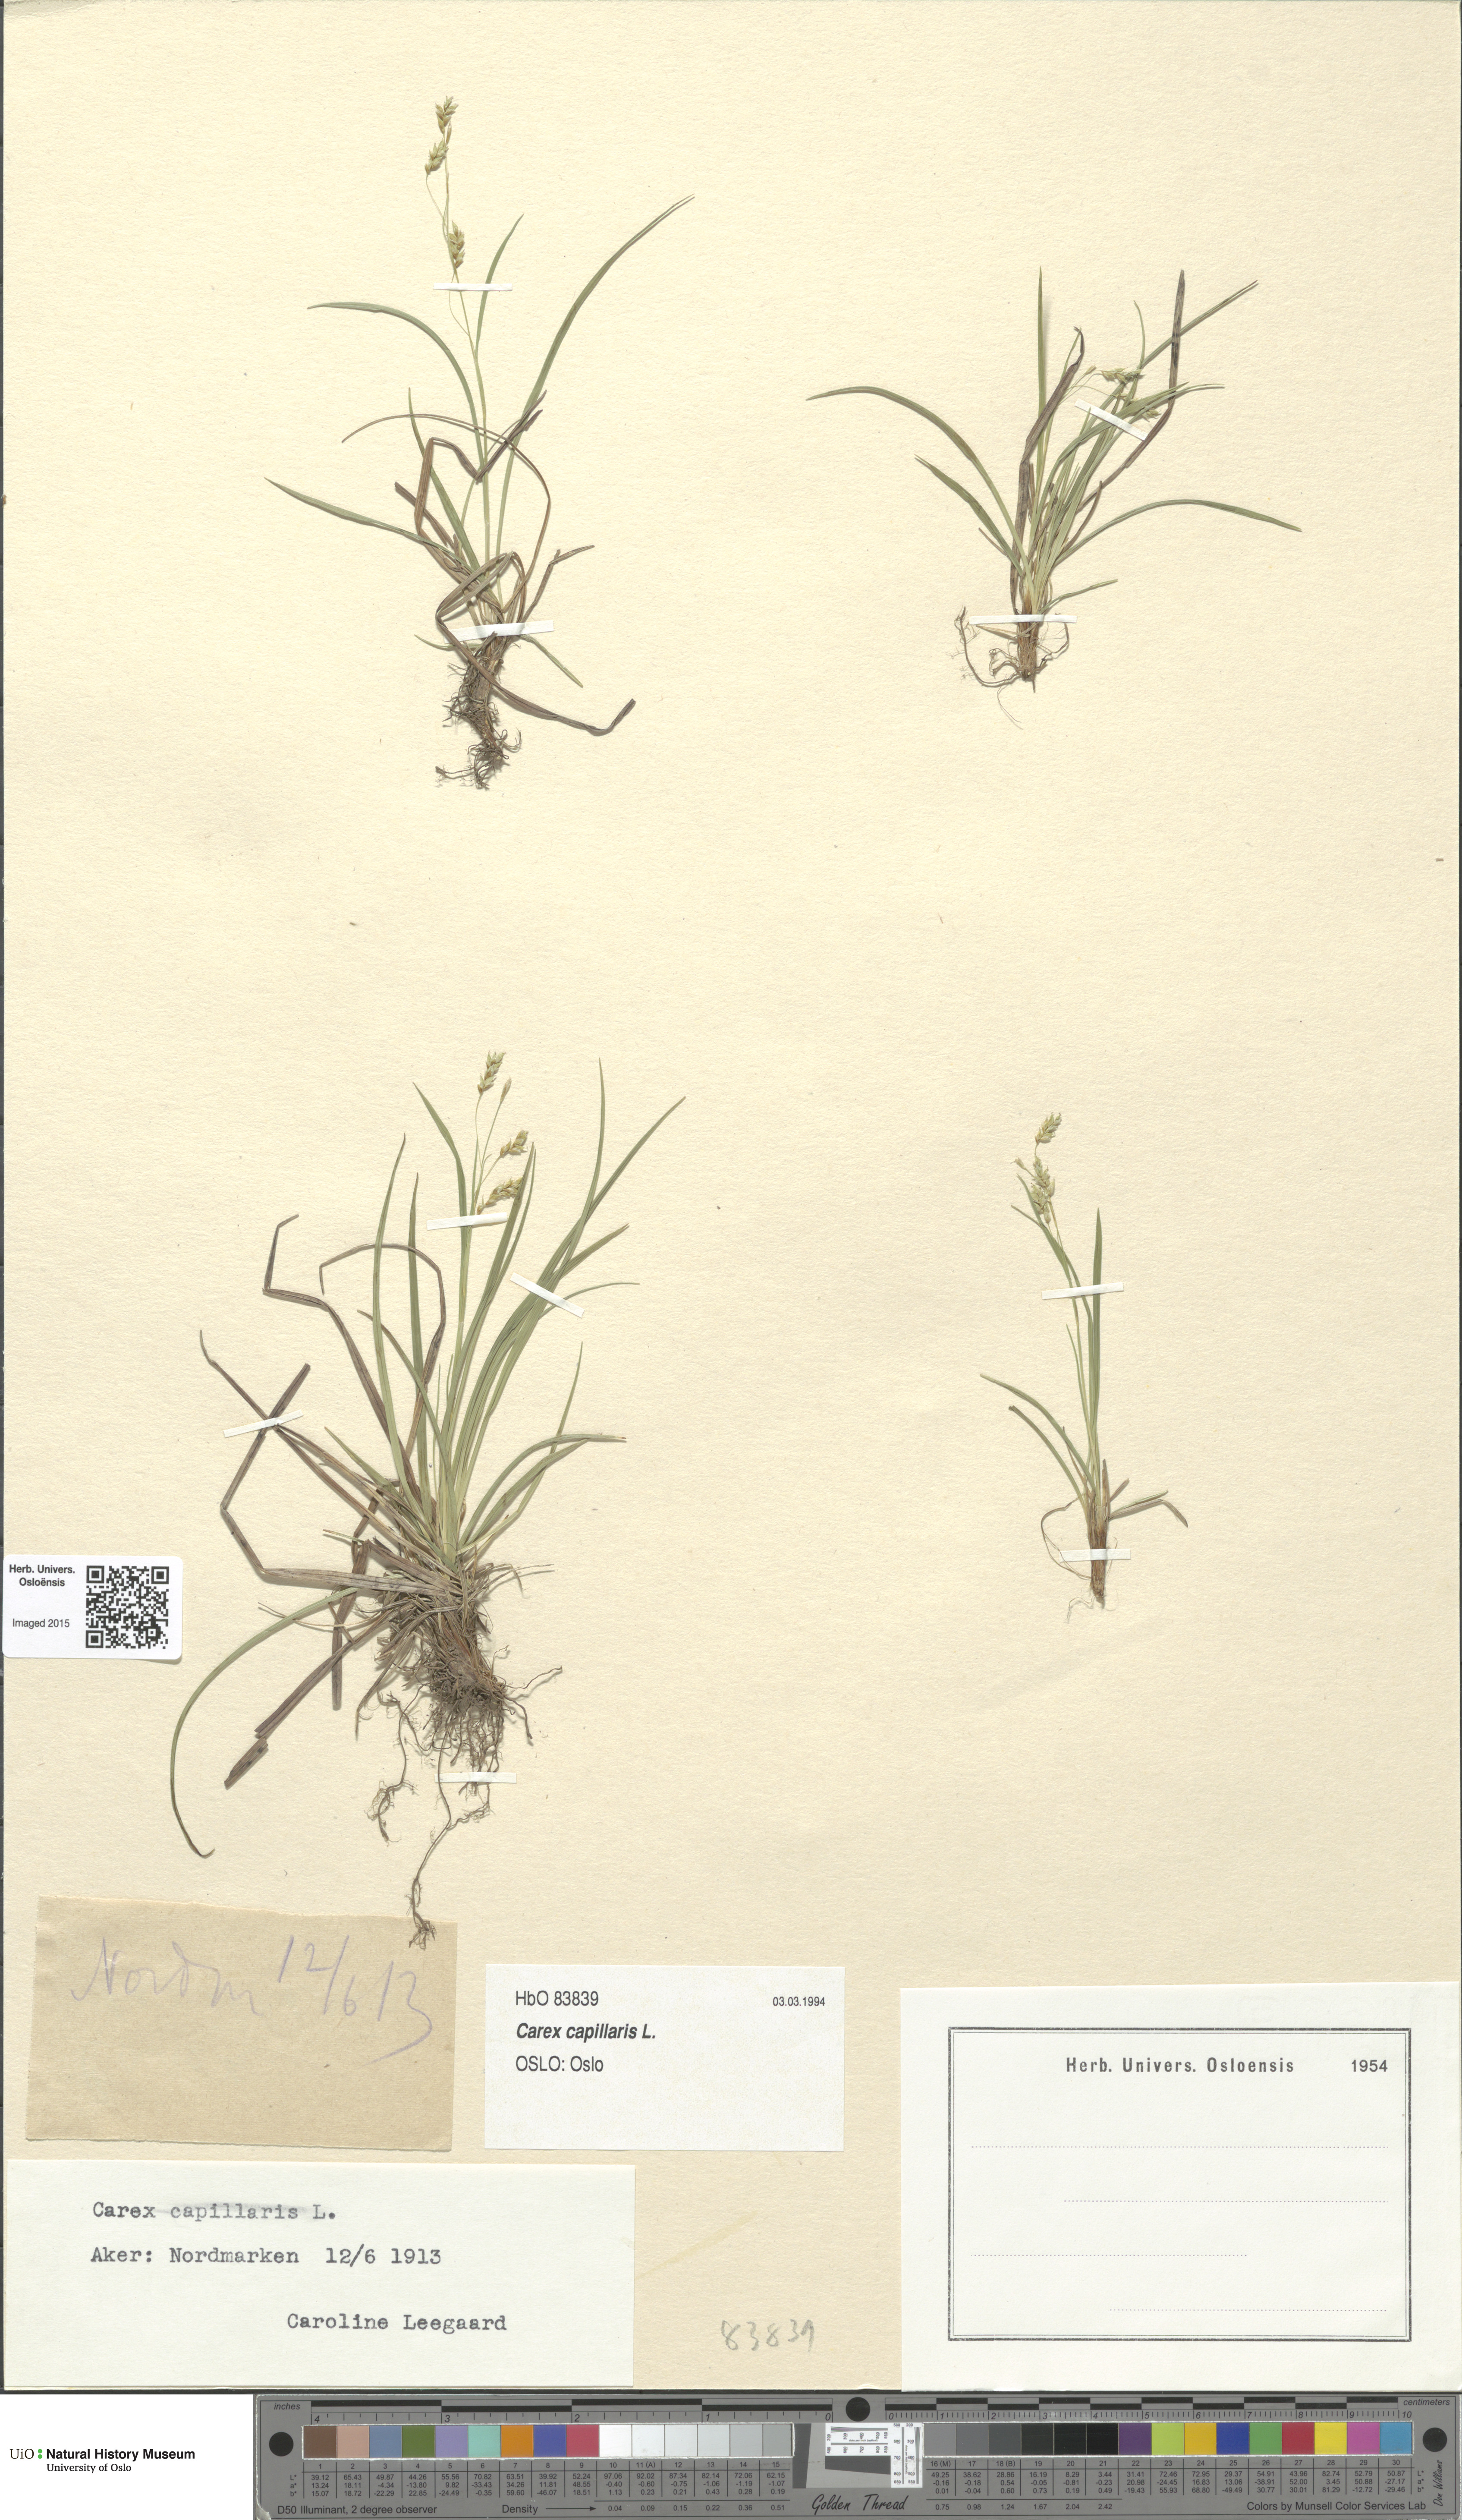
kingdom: Plantae
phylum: Tracheophyta
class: Liliopsida
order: Poales
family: Cyperaceae
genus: Carex
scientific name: Carex capillaris
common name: Hair sedge
